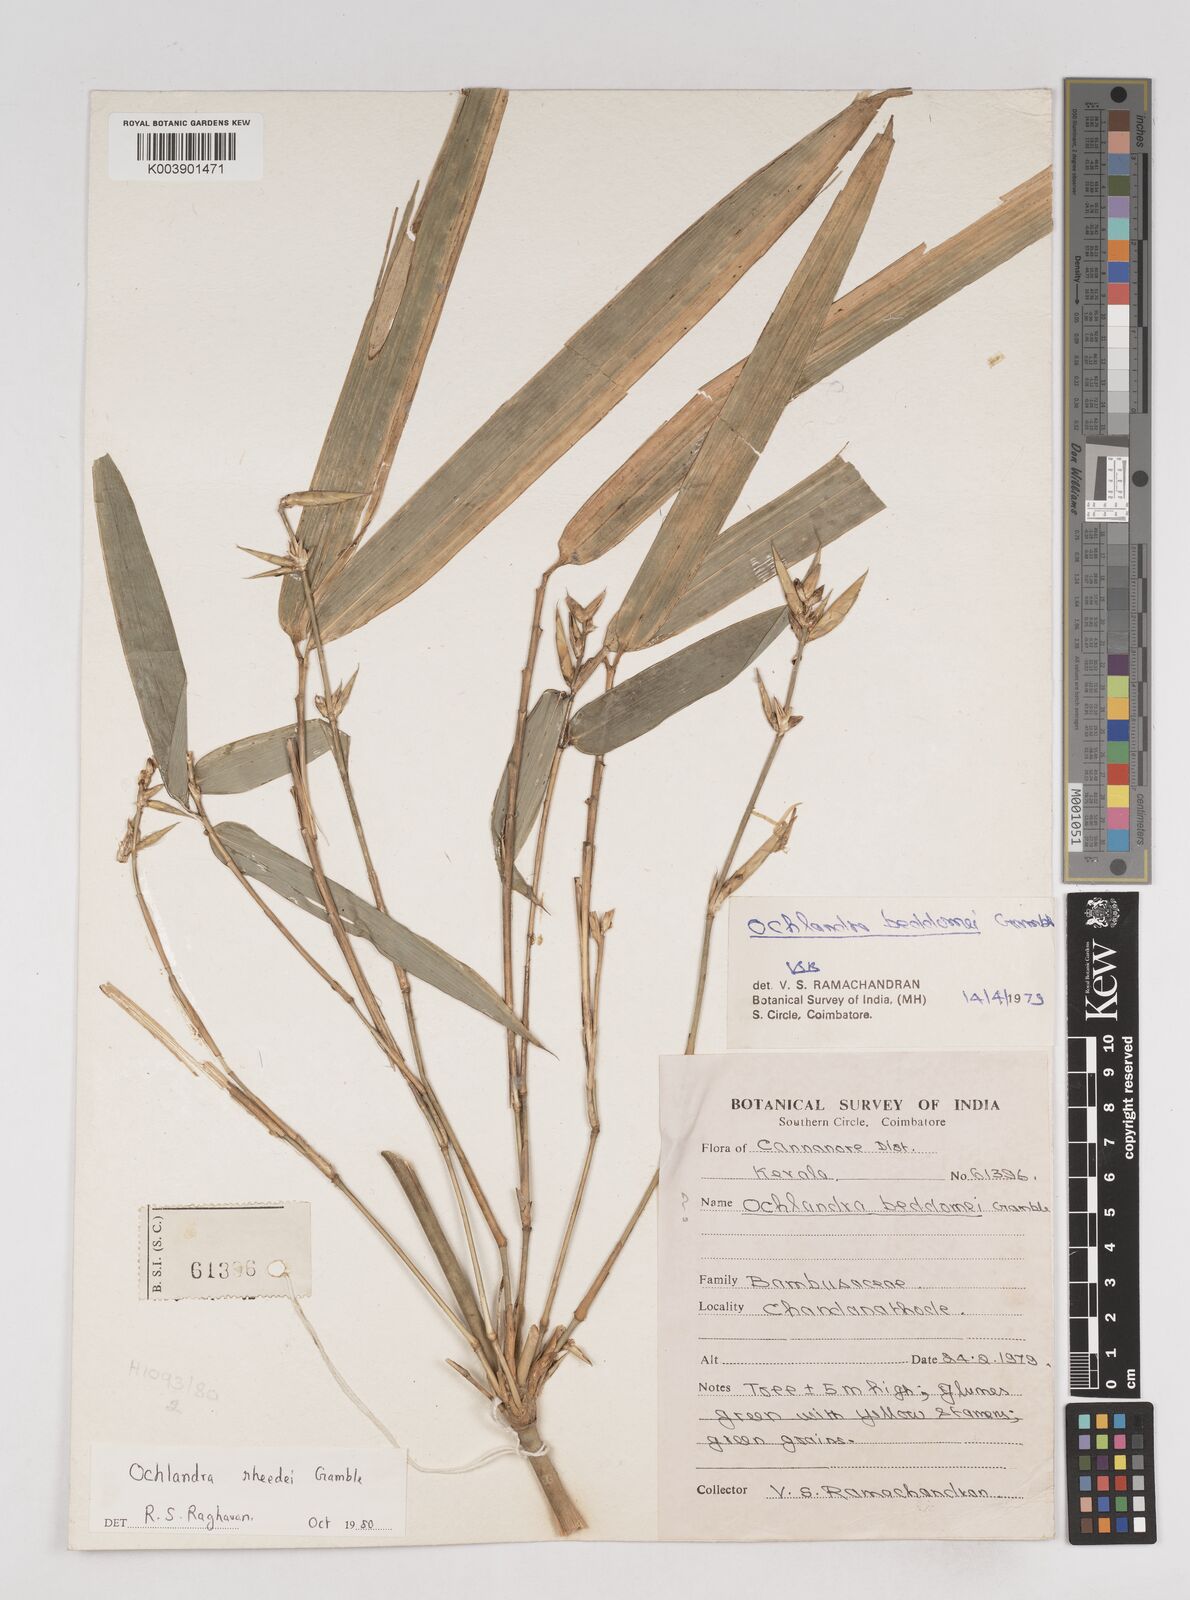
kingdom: Plantae
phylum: Tracheophyta
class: Liliopsida
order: Poales
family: Poaceae
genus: Ochlandra
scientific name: Ochlandra scriptoria
